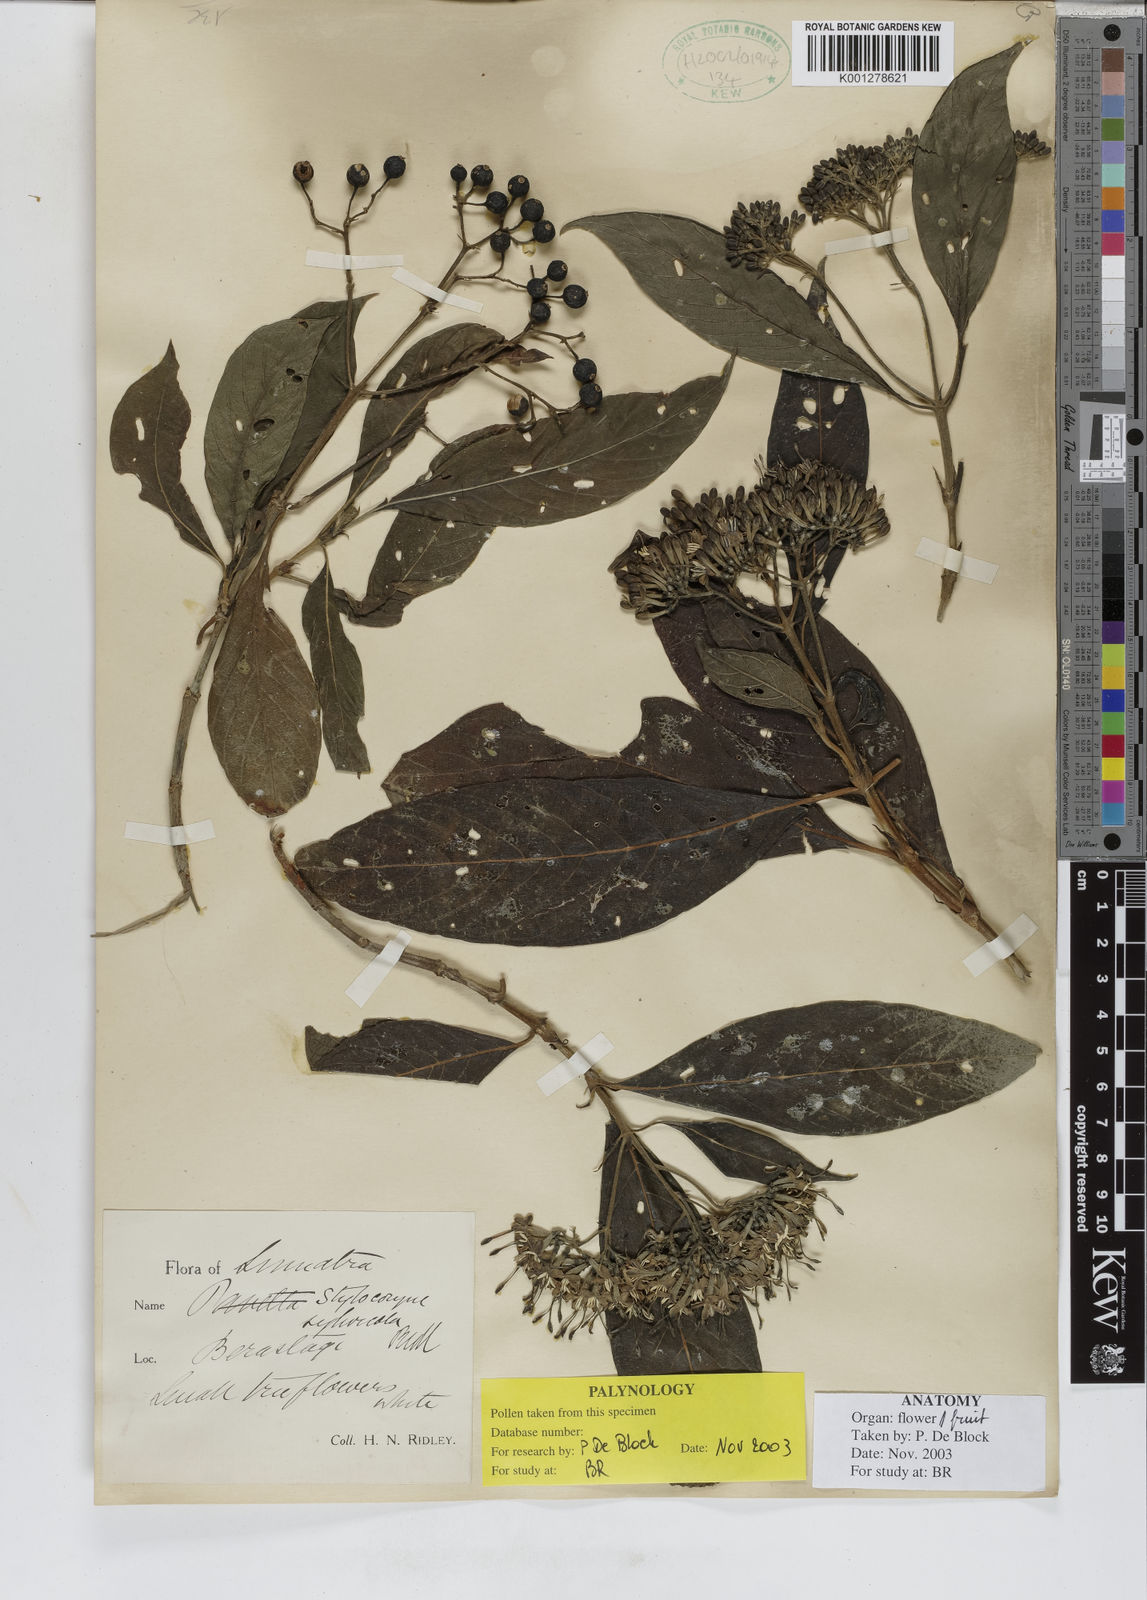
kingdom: Plantae
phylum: Tracheophyta
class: Magnoliopsida
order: Gentianales
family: Rubiaceae
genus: Tarenna
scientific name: Tarenna sylvicola
